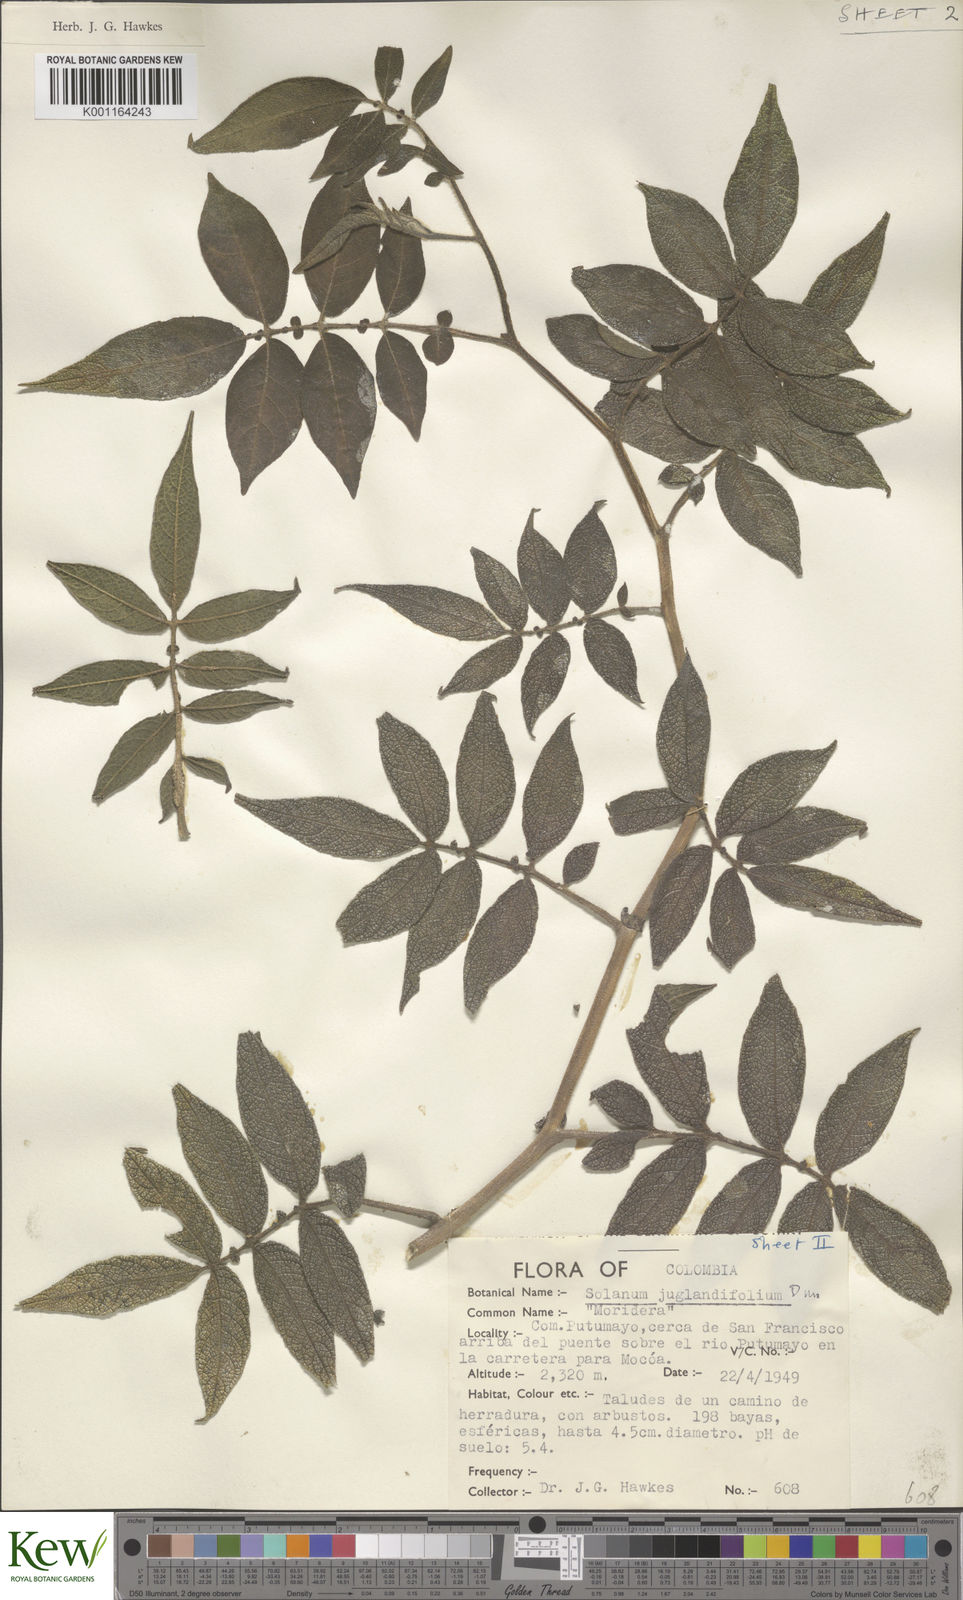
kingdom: Plantae
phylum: Tracheophyta
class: Magnoliopsida
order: Solanales
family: Solanaceae
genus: Solanum
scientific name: Solanum juglandifolium
